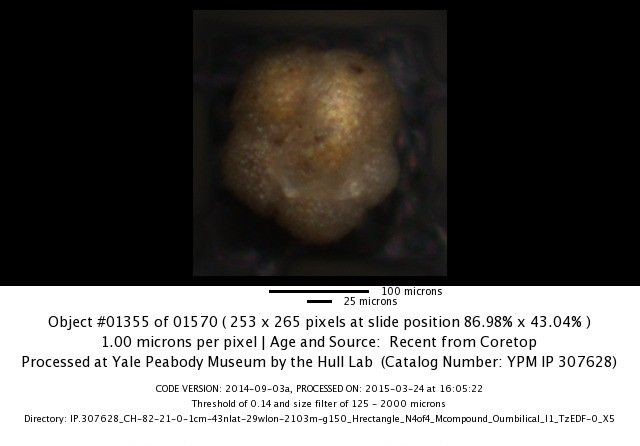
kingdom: Chromista
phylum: Foraminifera
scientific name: Foraminifera
